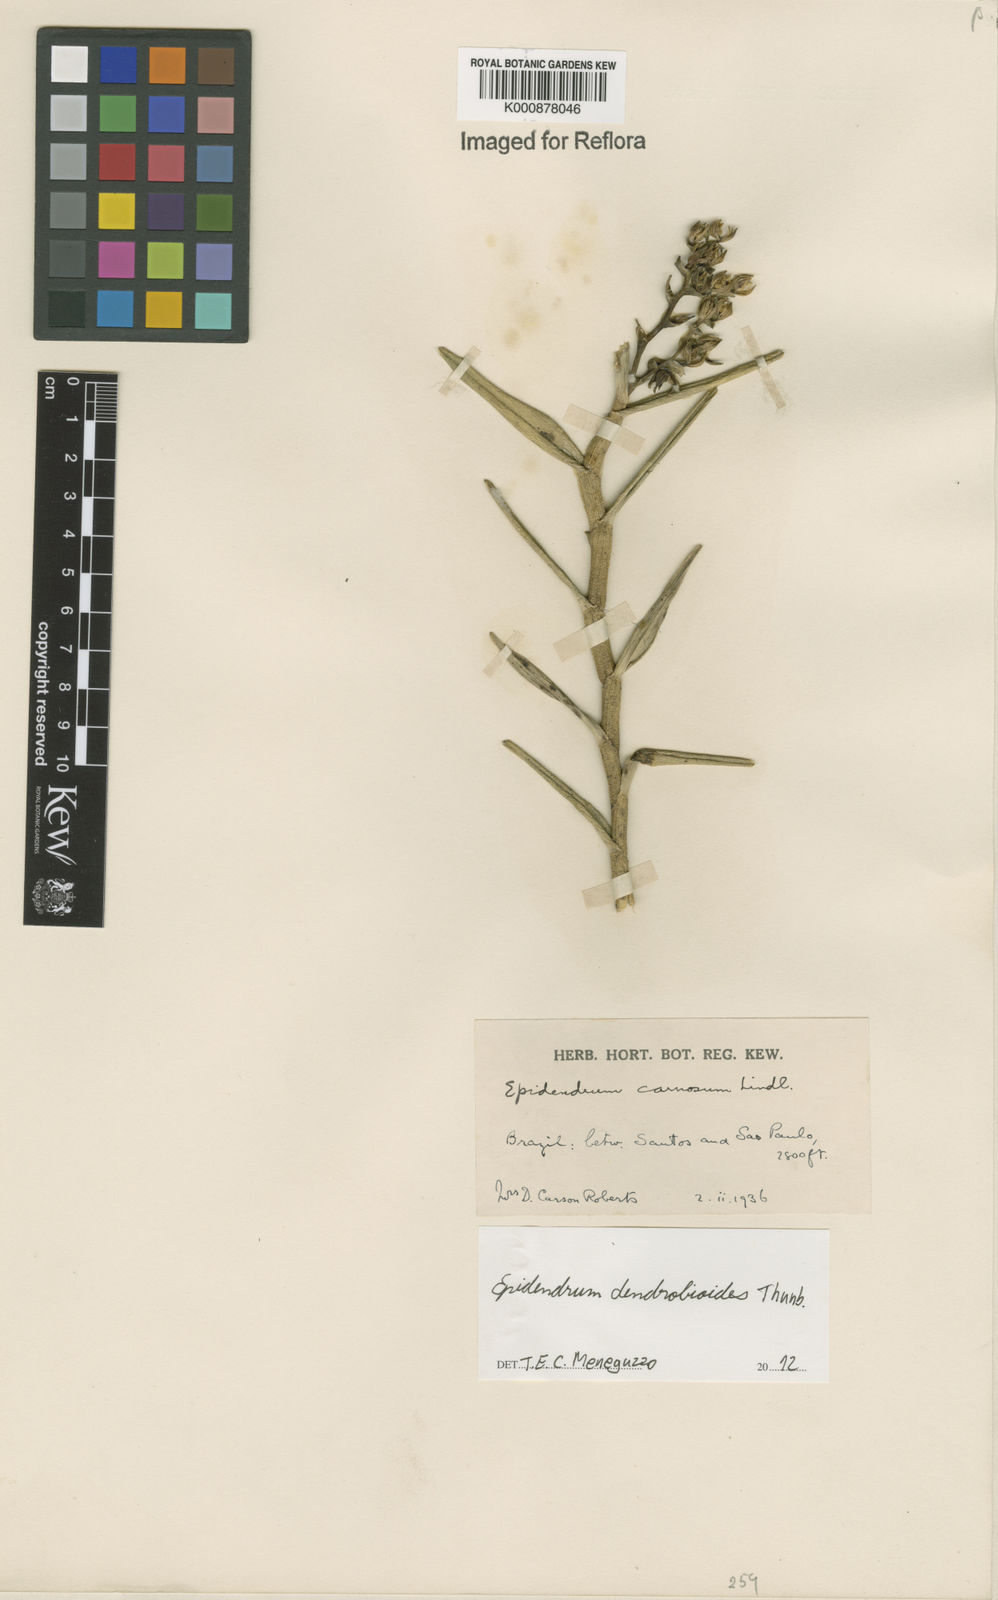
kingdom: Plantae
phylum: Tracheophyta
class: Liliopsida
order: Asparagales
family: Orchidaceae
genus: Epidendrum
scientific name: Epidendrum dendrobioides
